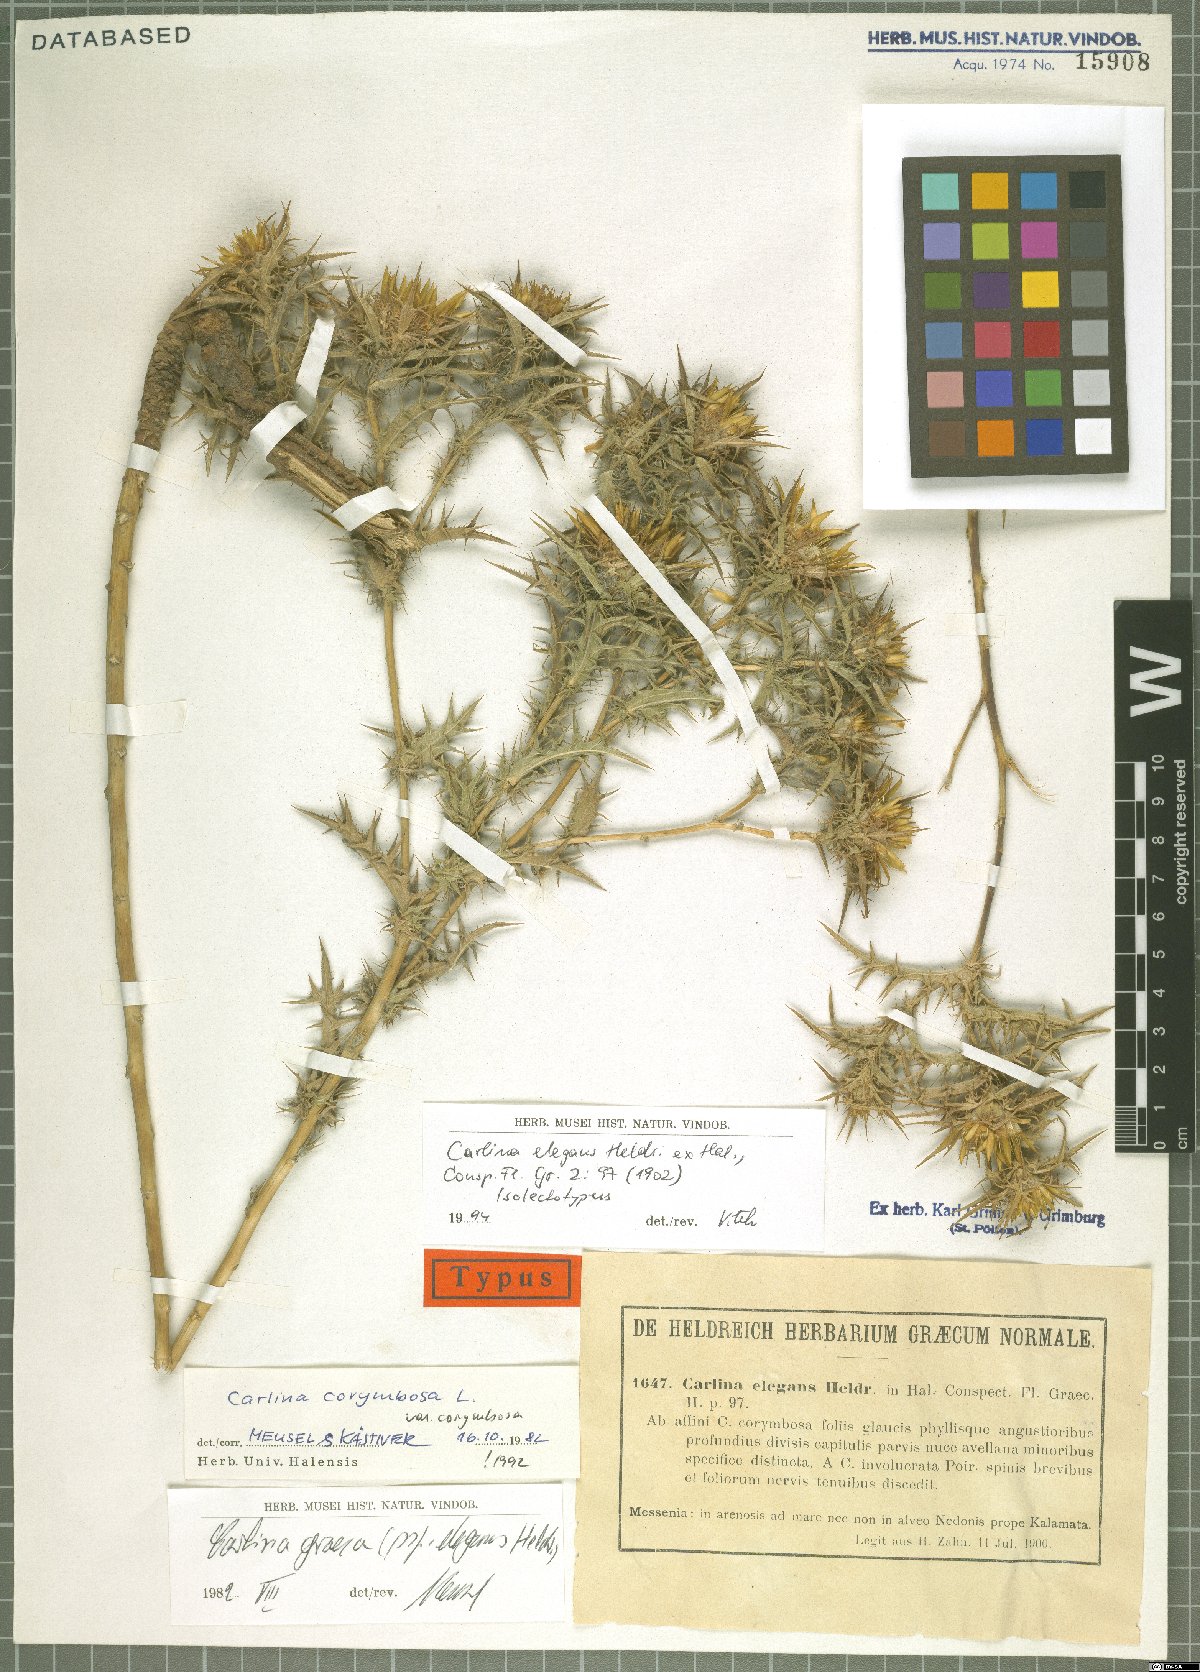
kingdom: Plantae
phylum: Tracheophyta
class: Magnoliopsida
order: Asterales
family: Asteraceae
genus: Carlina
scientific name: Carlina corymbosa
